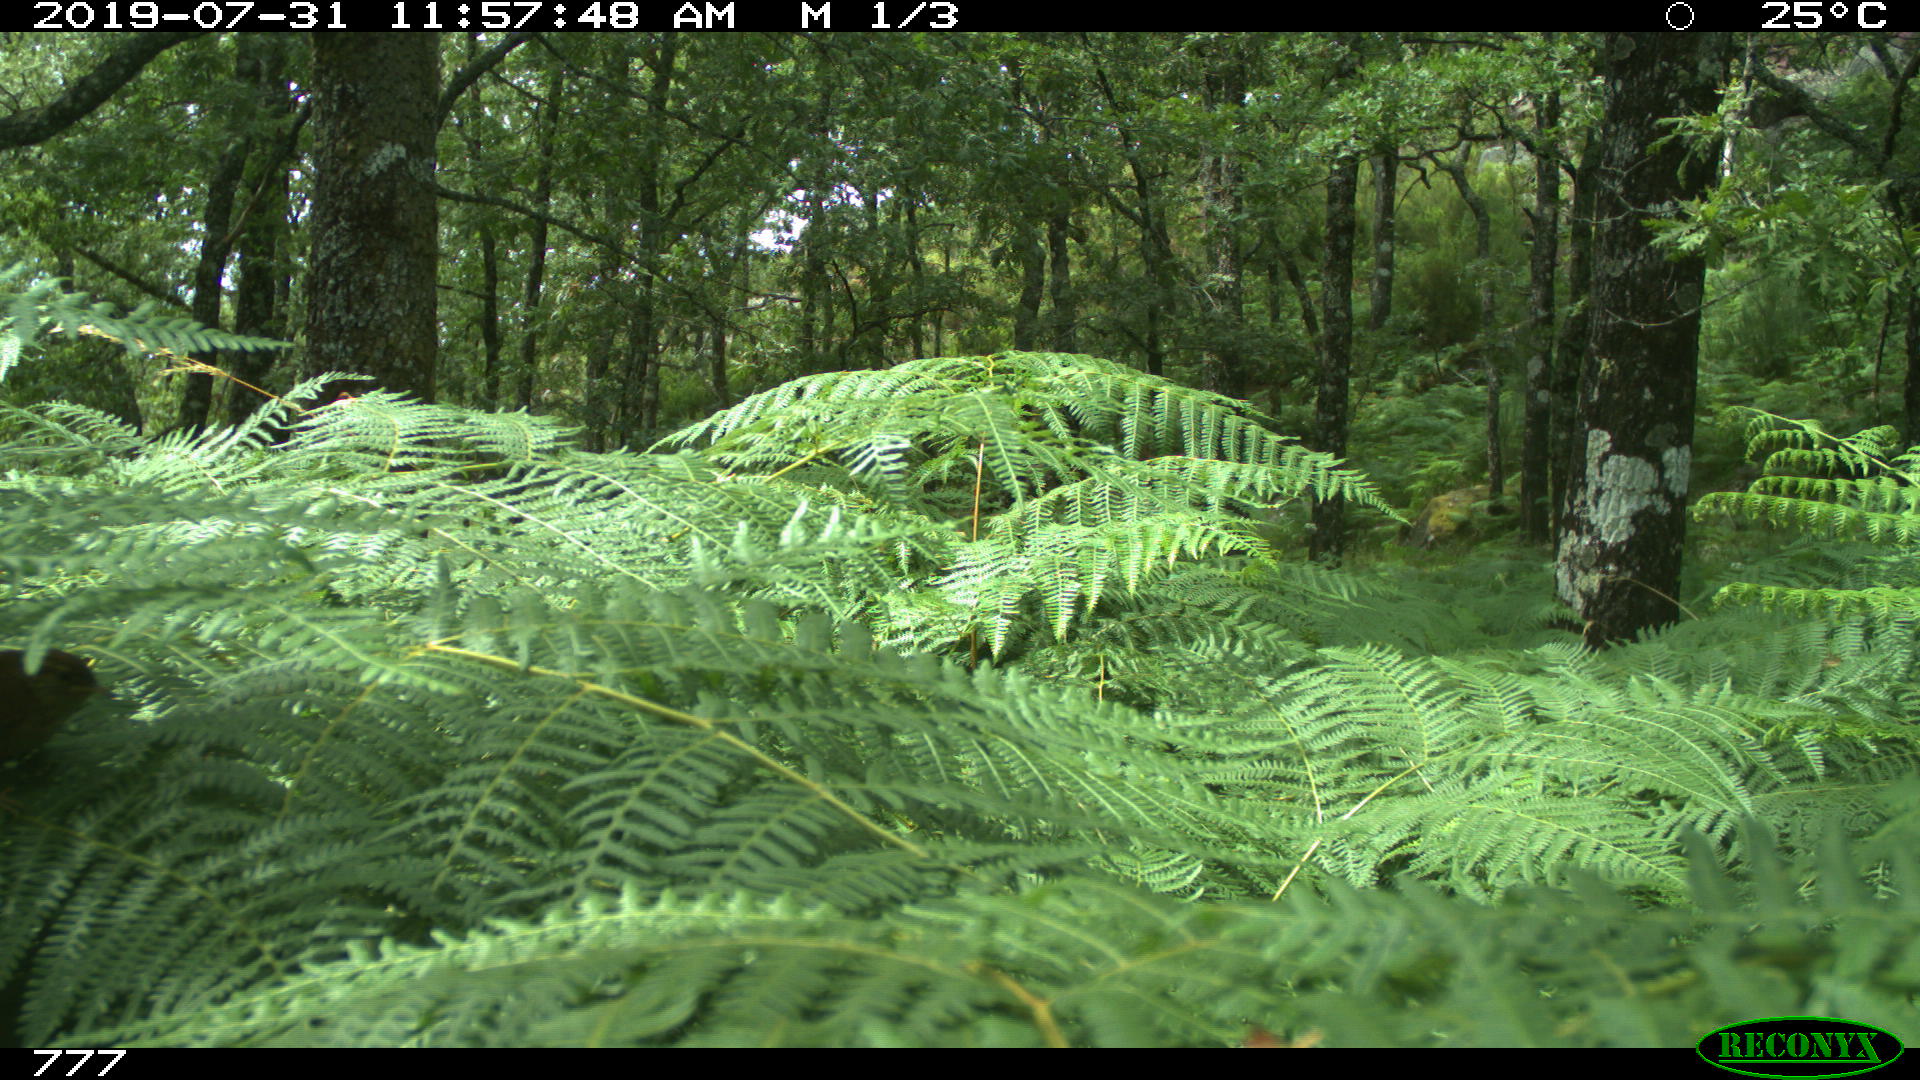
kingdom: Animalia
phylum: Chordata
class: Mammalia
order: Rodentia
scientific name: Rodentia
